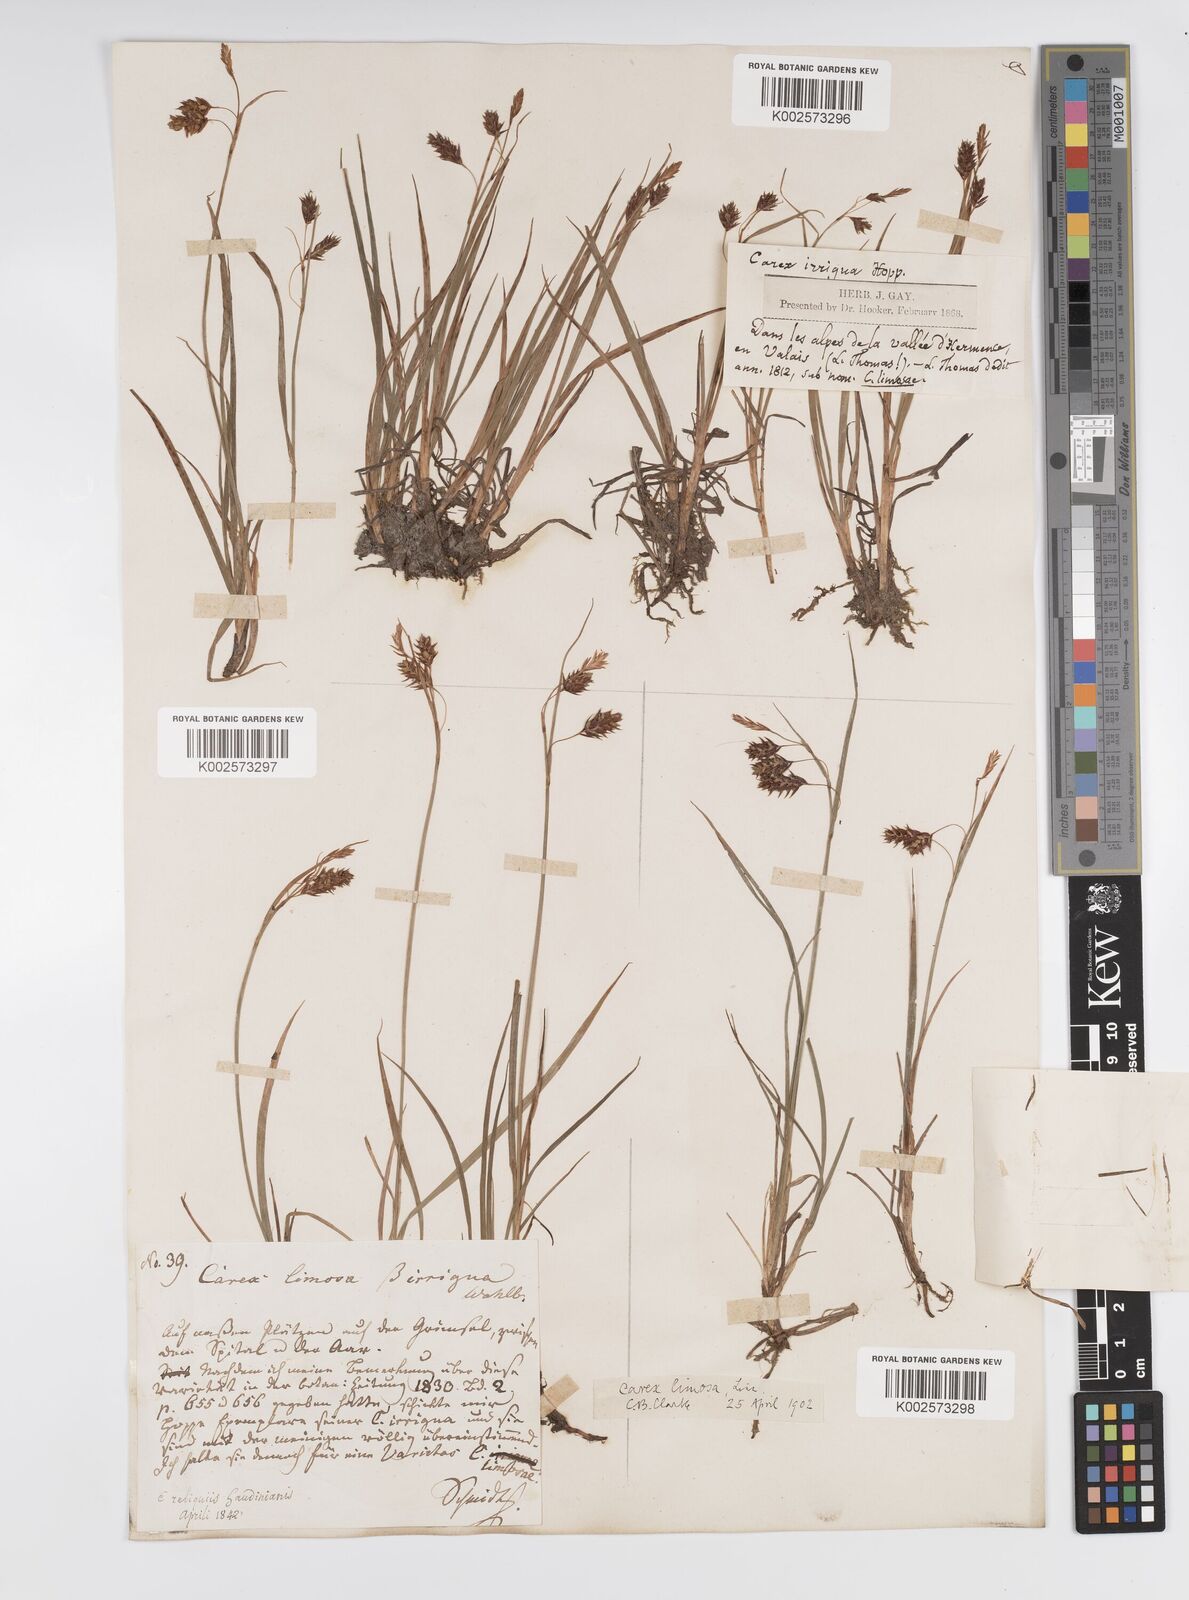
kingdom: Plantae
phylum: Tracheophyta
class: Liliopsida
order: Poales
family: Cyperaceae
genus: Carex
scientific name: Carex magellanica
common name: Bog sedge
